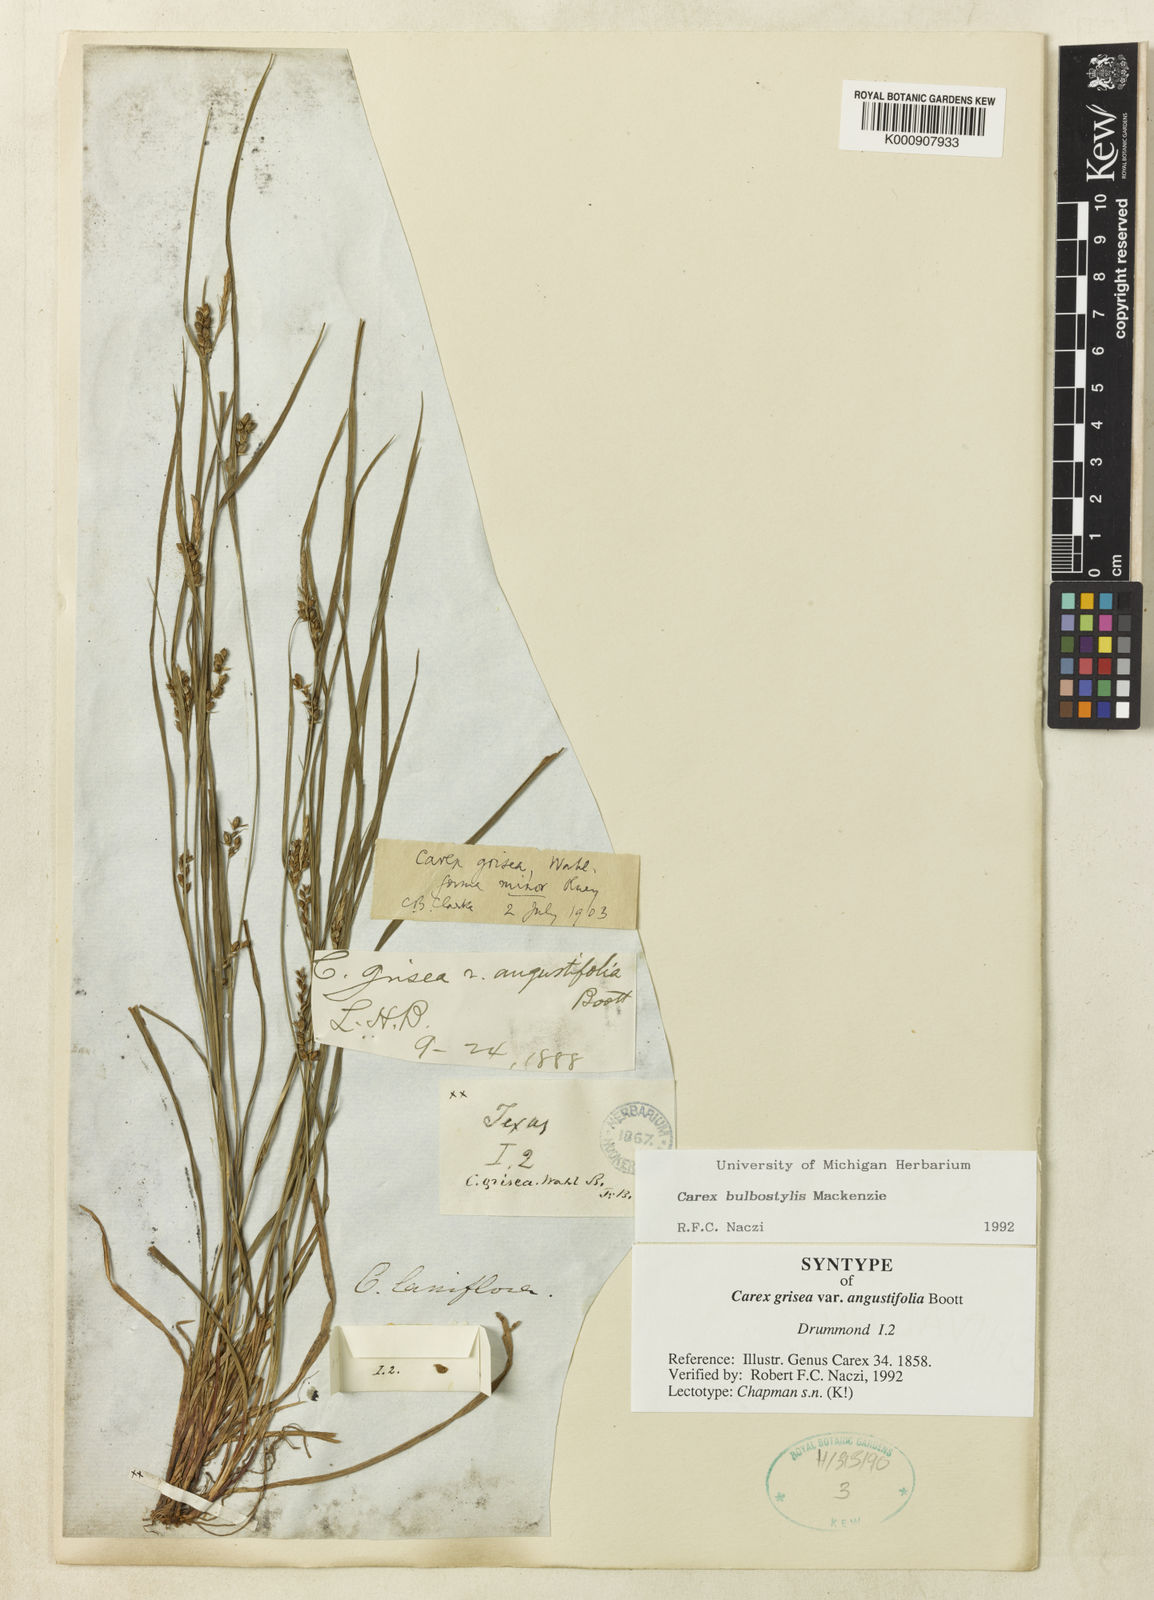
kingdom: Plantae
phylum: Tracheophyta
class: Liliopsida
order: Poales
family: Cyperaceae
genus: Carex
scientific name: Carex bulbostylis
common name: Eastern narrowleaf sedge
